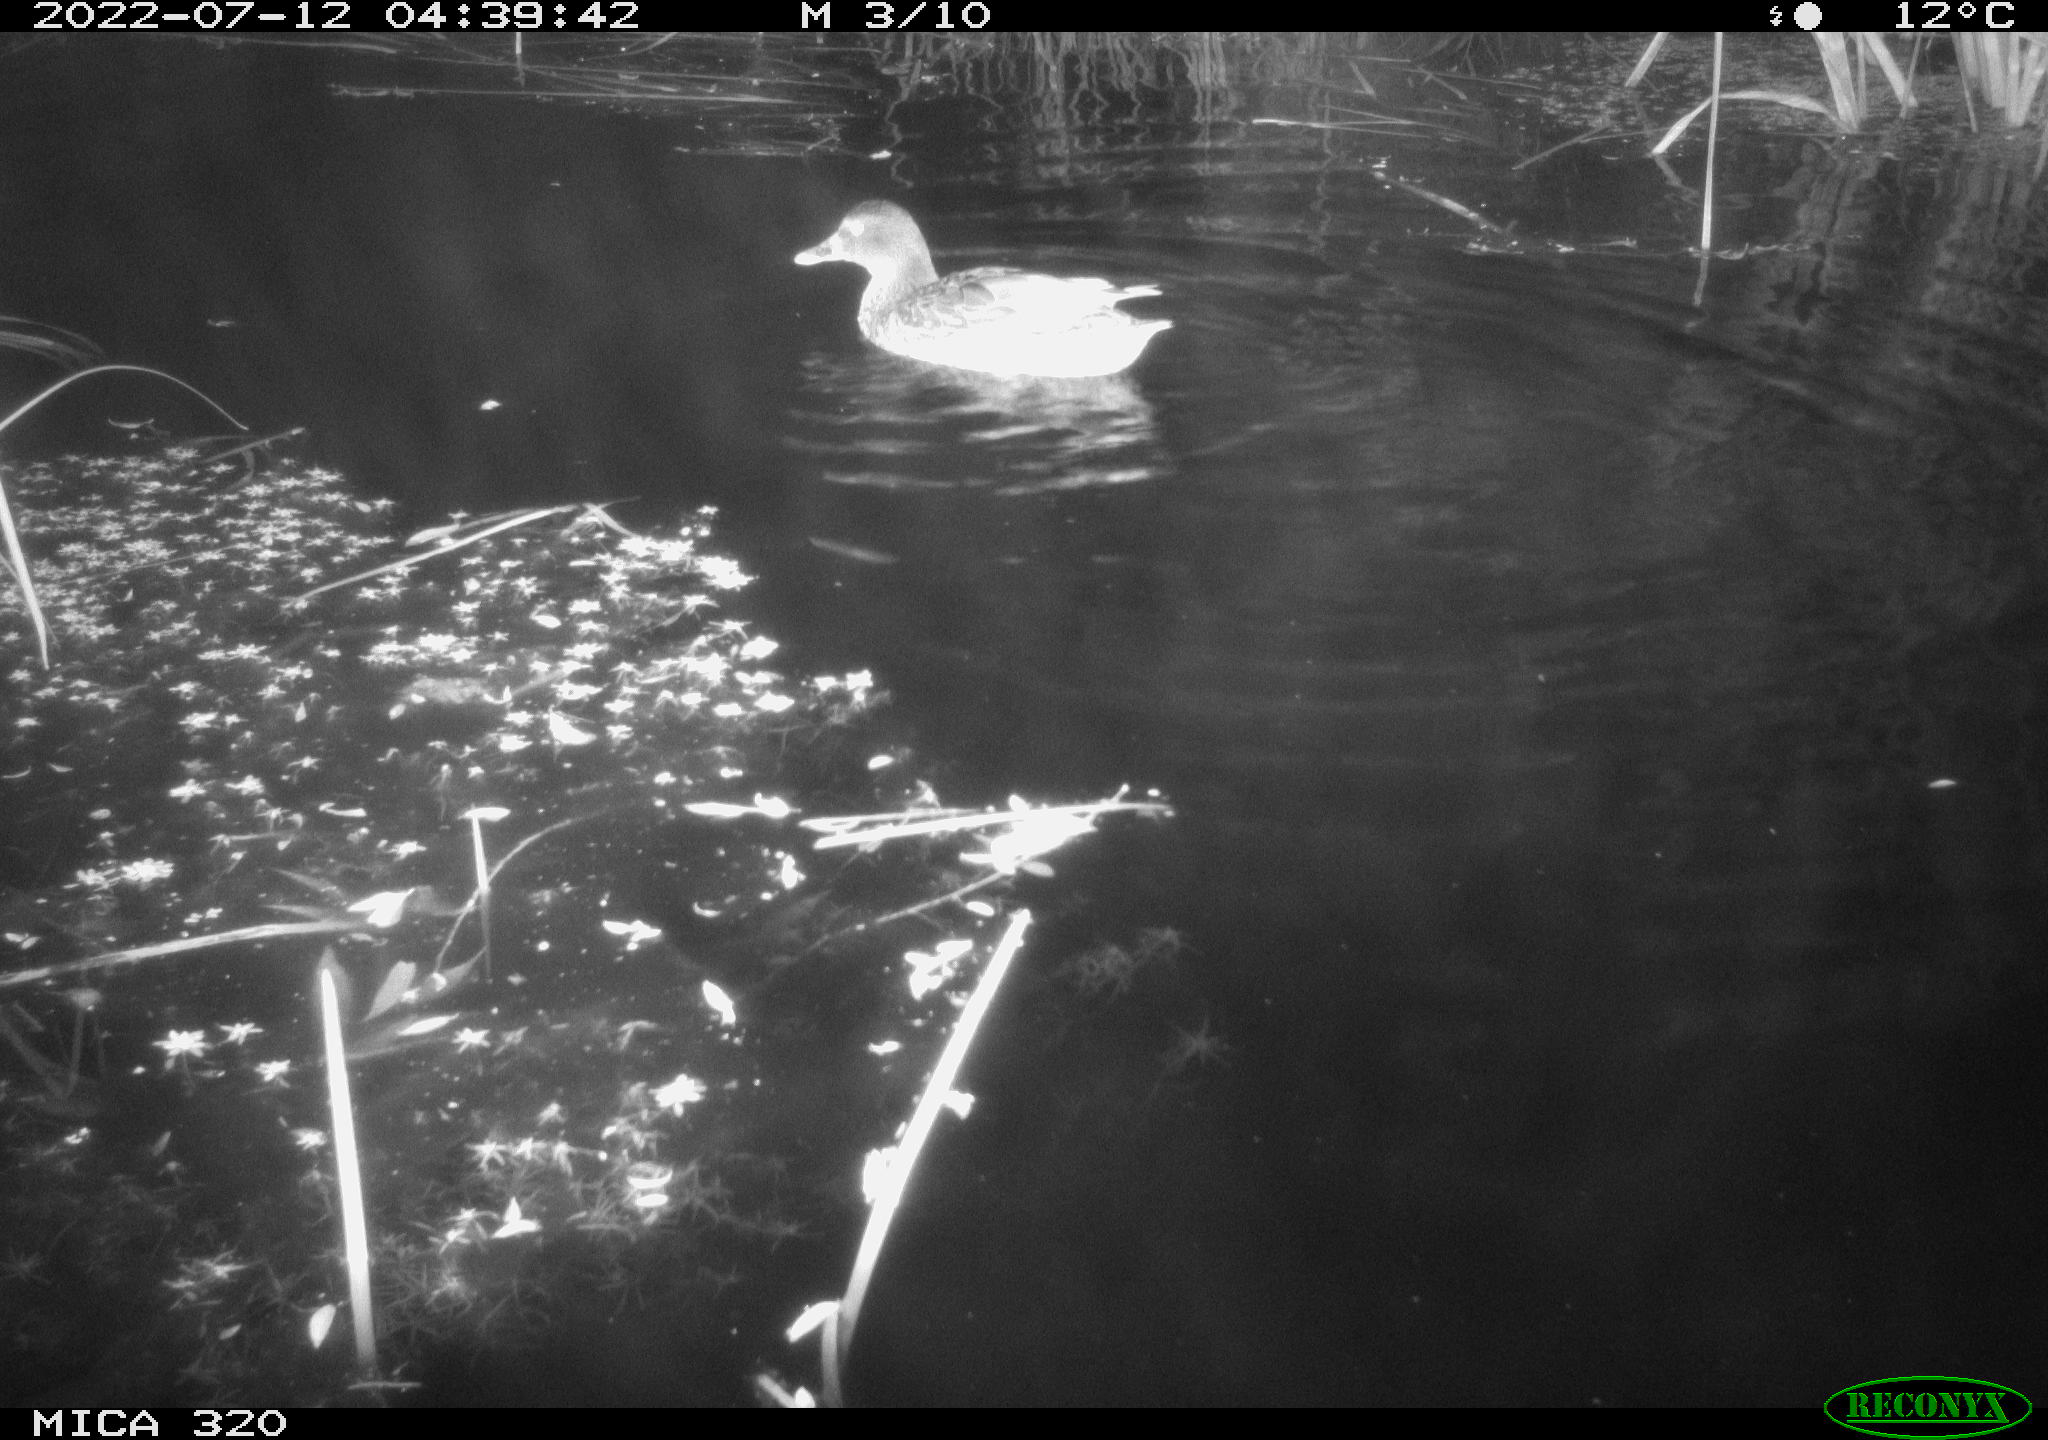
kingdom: Animalia
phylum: Chordata
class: Aves
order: Anseriformes
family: Anatidae
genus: Mareca
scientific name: Mareca strepera
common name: Gadwall
